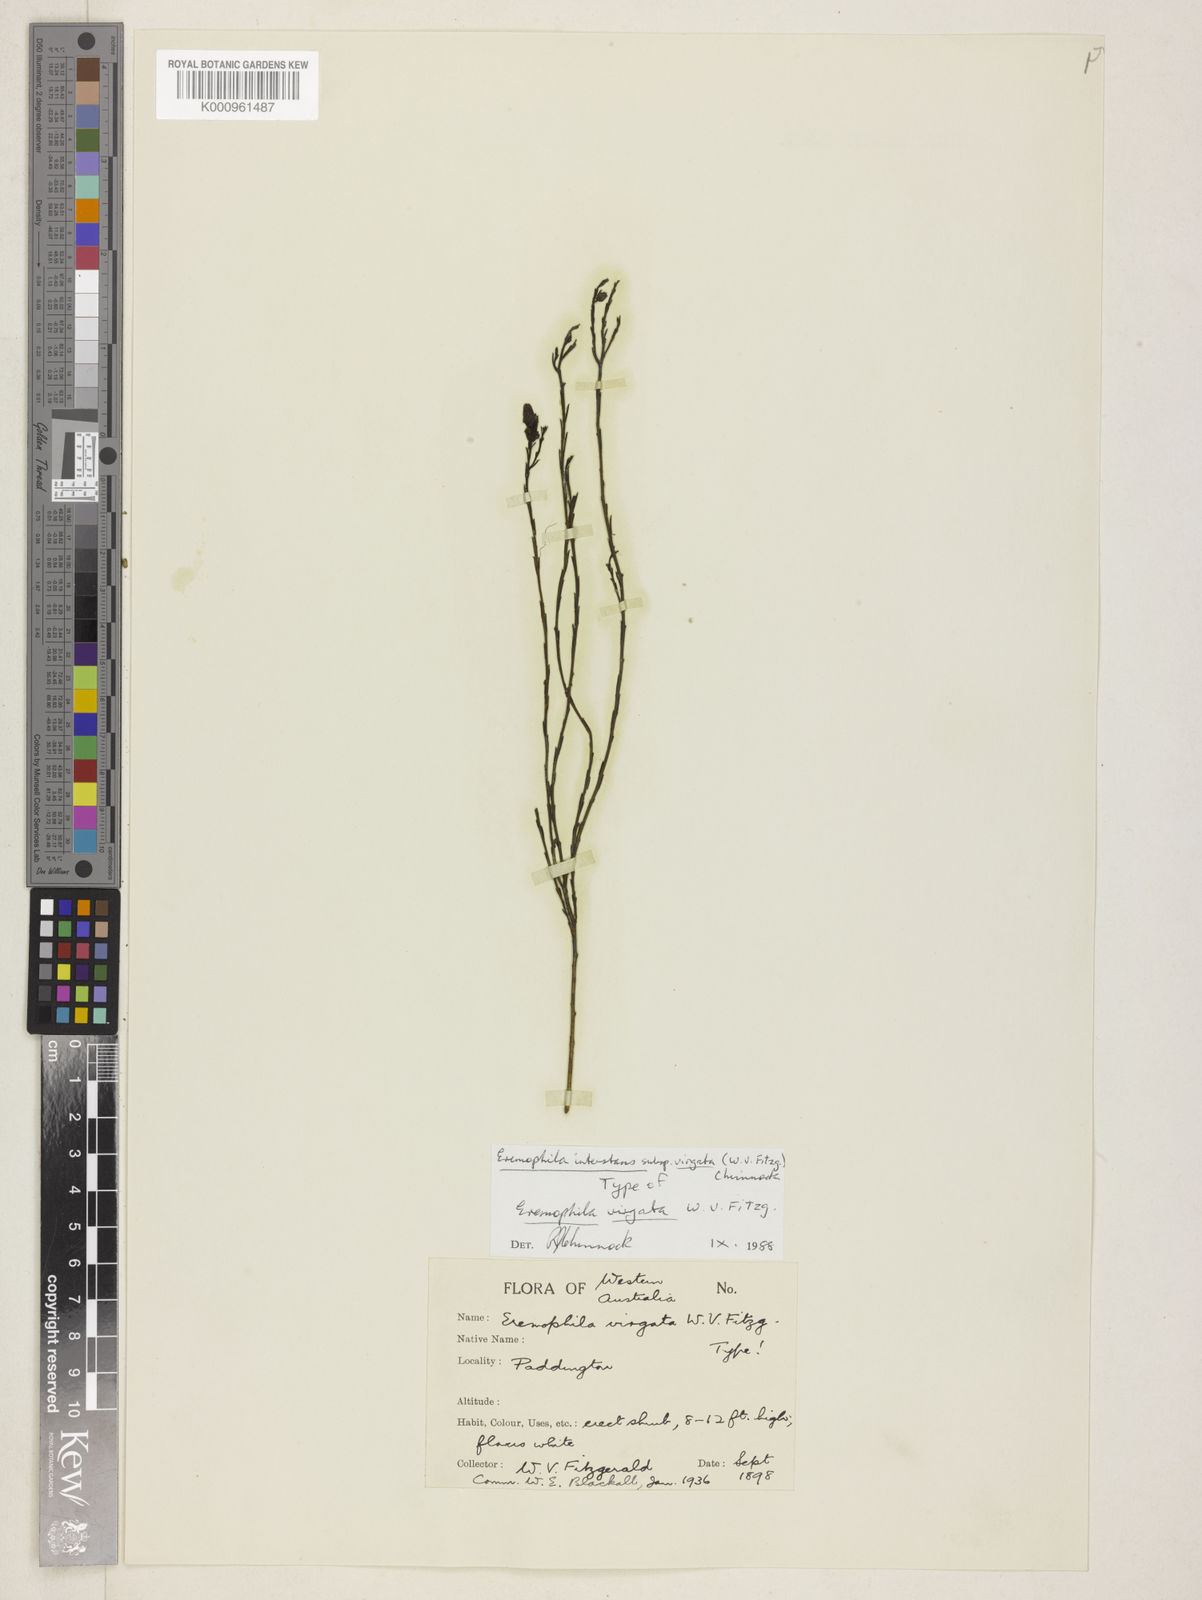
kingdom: Plantae
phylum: Tracheophyta
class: Magnoliopsida
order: Lamiales
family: Scrophulariaceae
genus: Eremophila
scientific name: Eremophila interstans
